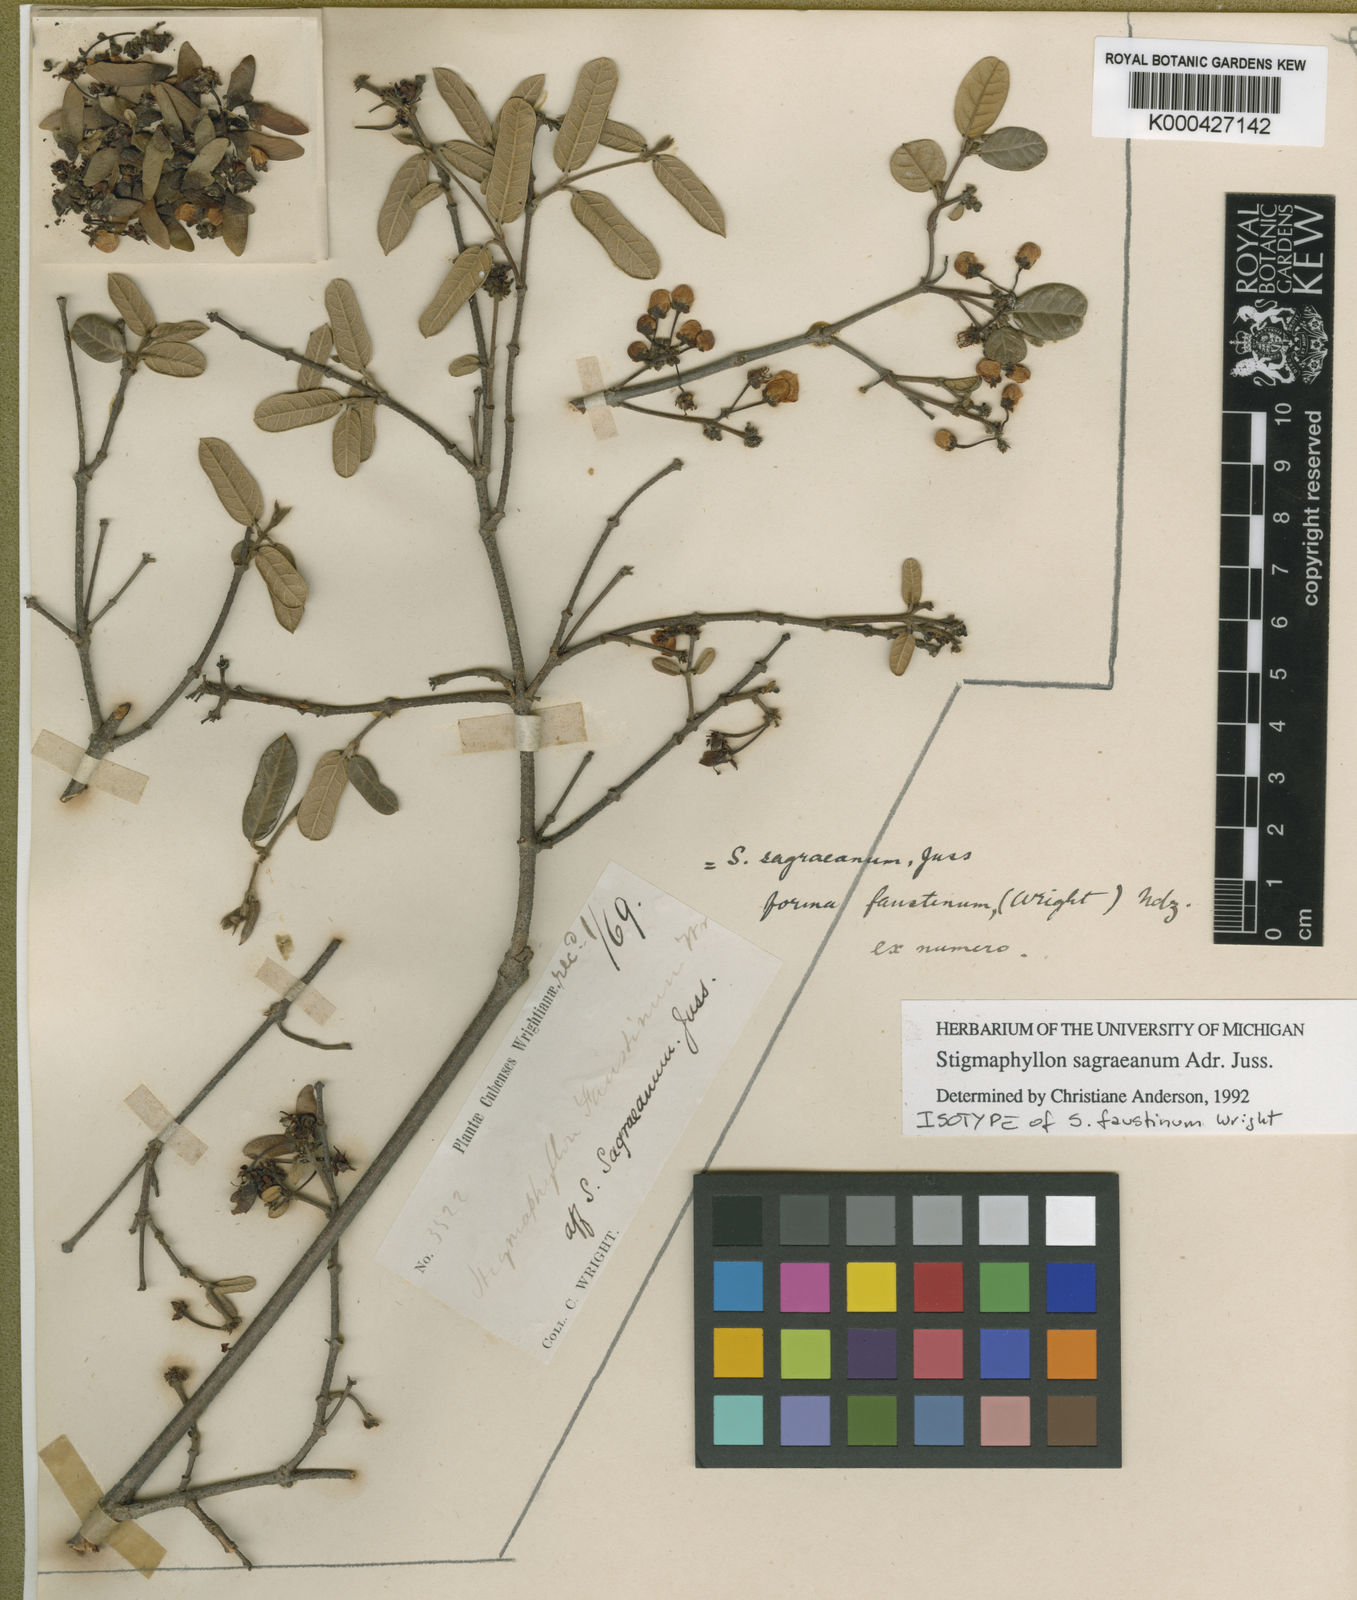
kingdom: Plantae
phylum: Tracheophyta
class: Magnoliopsida
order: Malpighiales
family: Malpighiaceae
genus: Stigmaphyllon
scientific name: Stigmaphyllon sagraeanum
